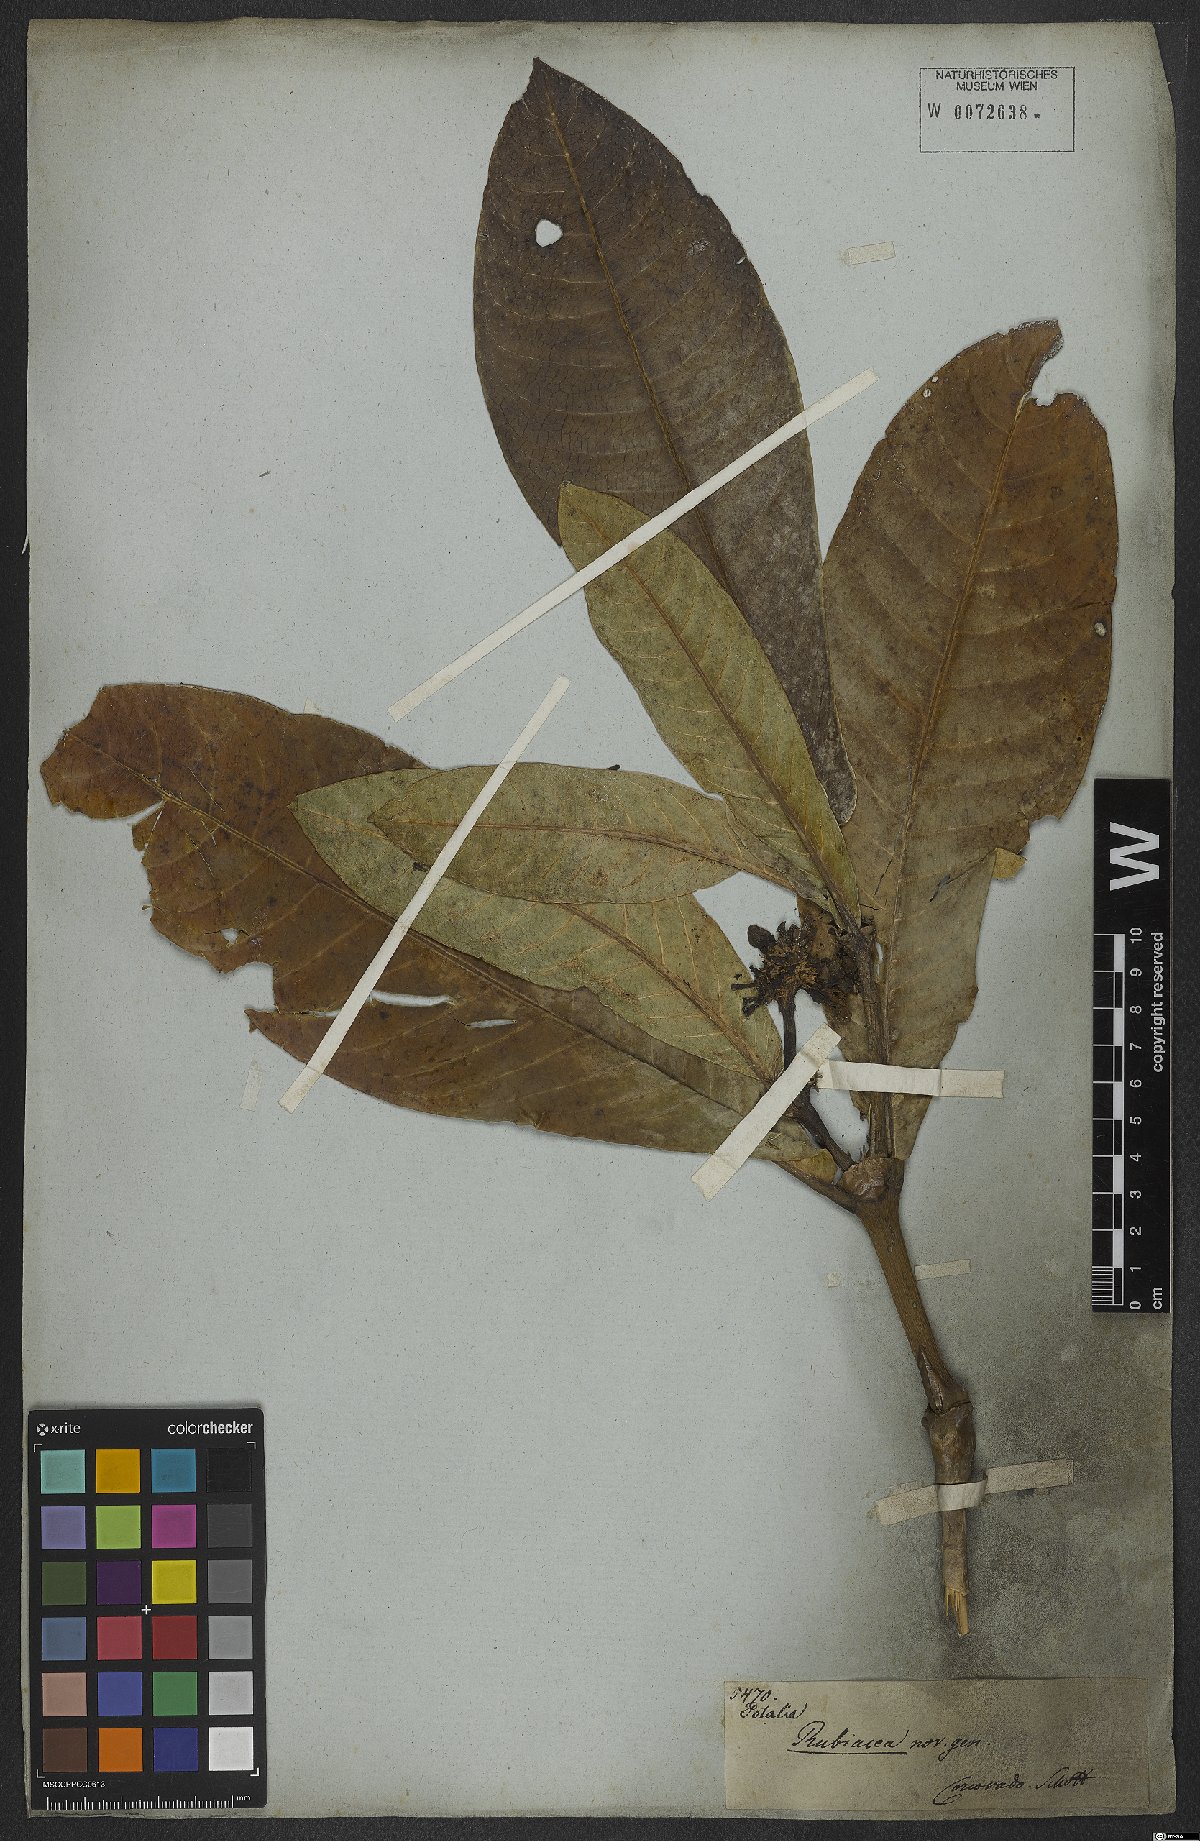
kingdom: Plantae
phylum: Tracheophyta
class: Magnoliopsida
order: Gentianales
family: Rubiaceae
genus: Rudgea
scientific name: Rudgea macrophylla
